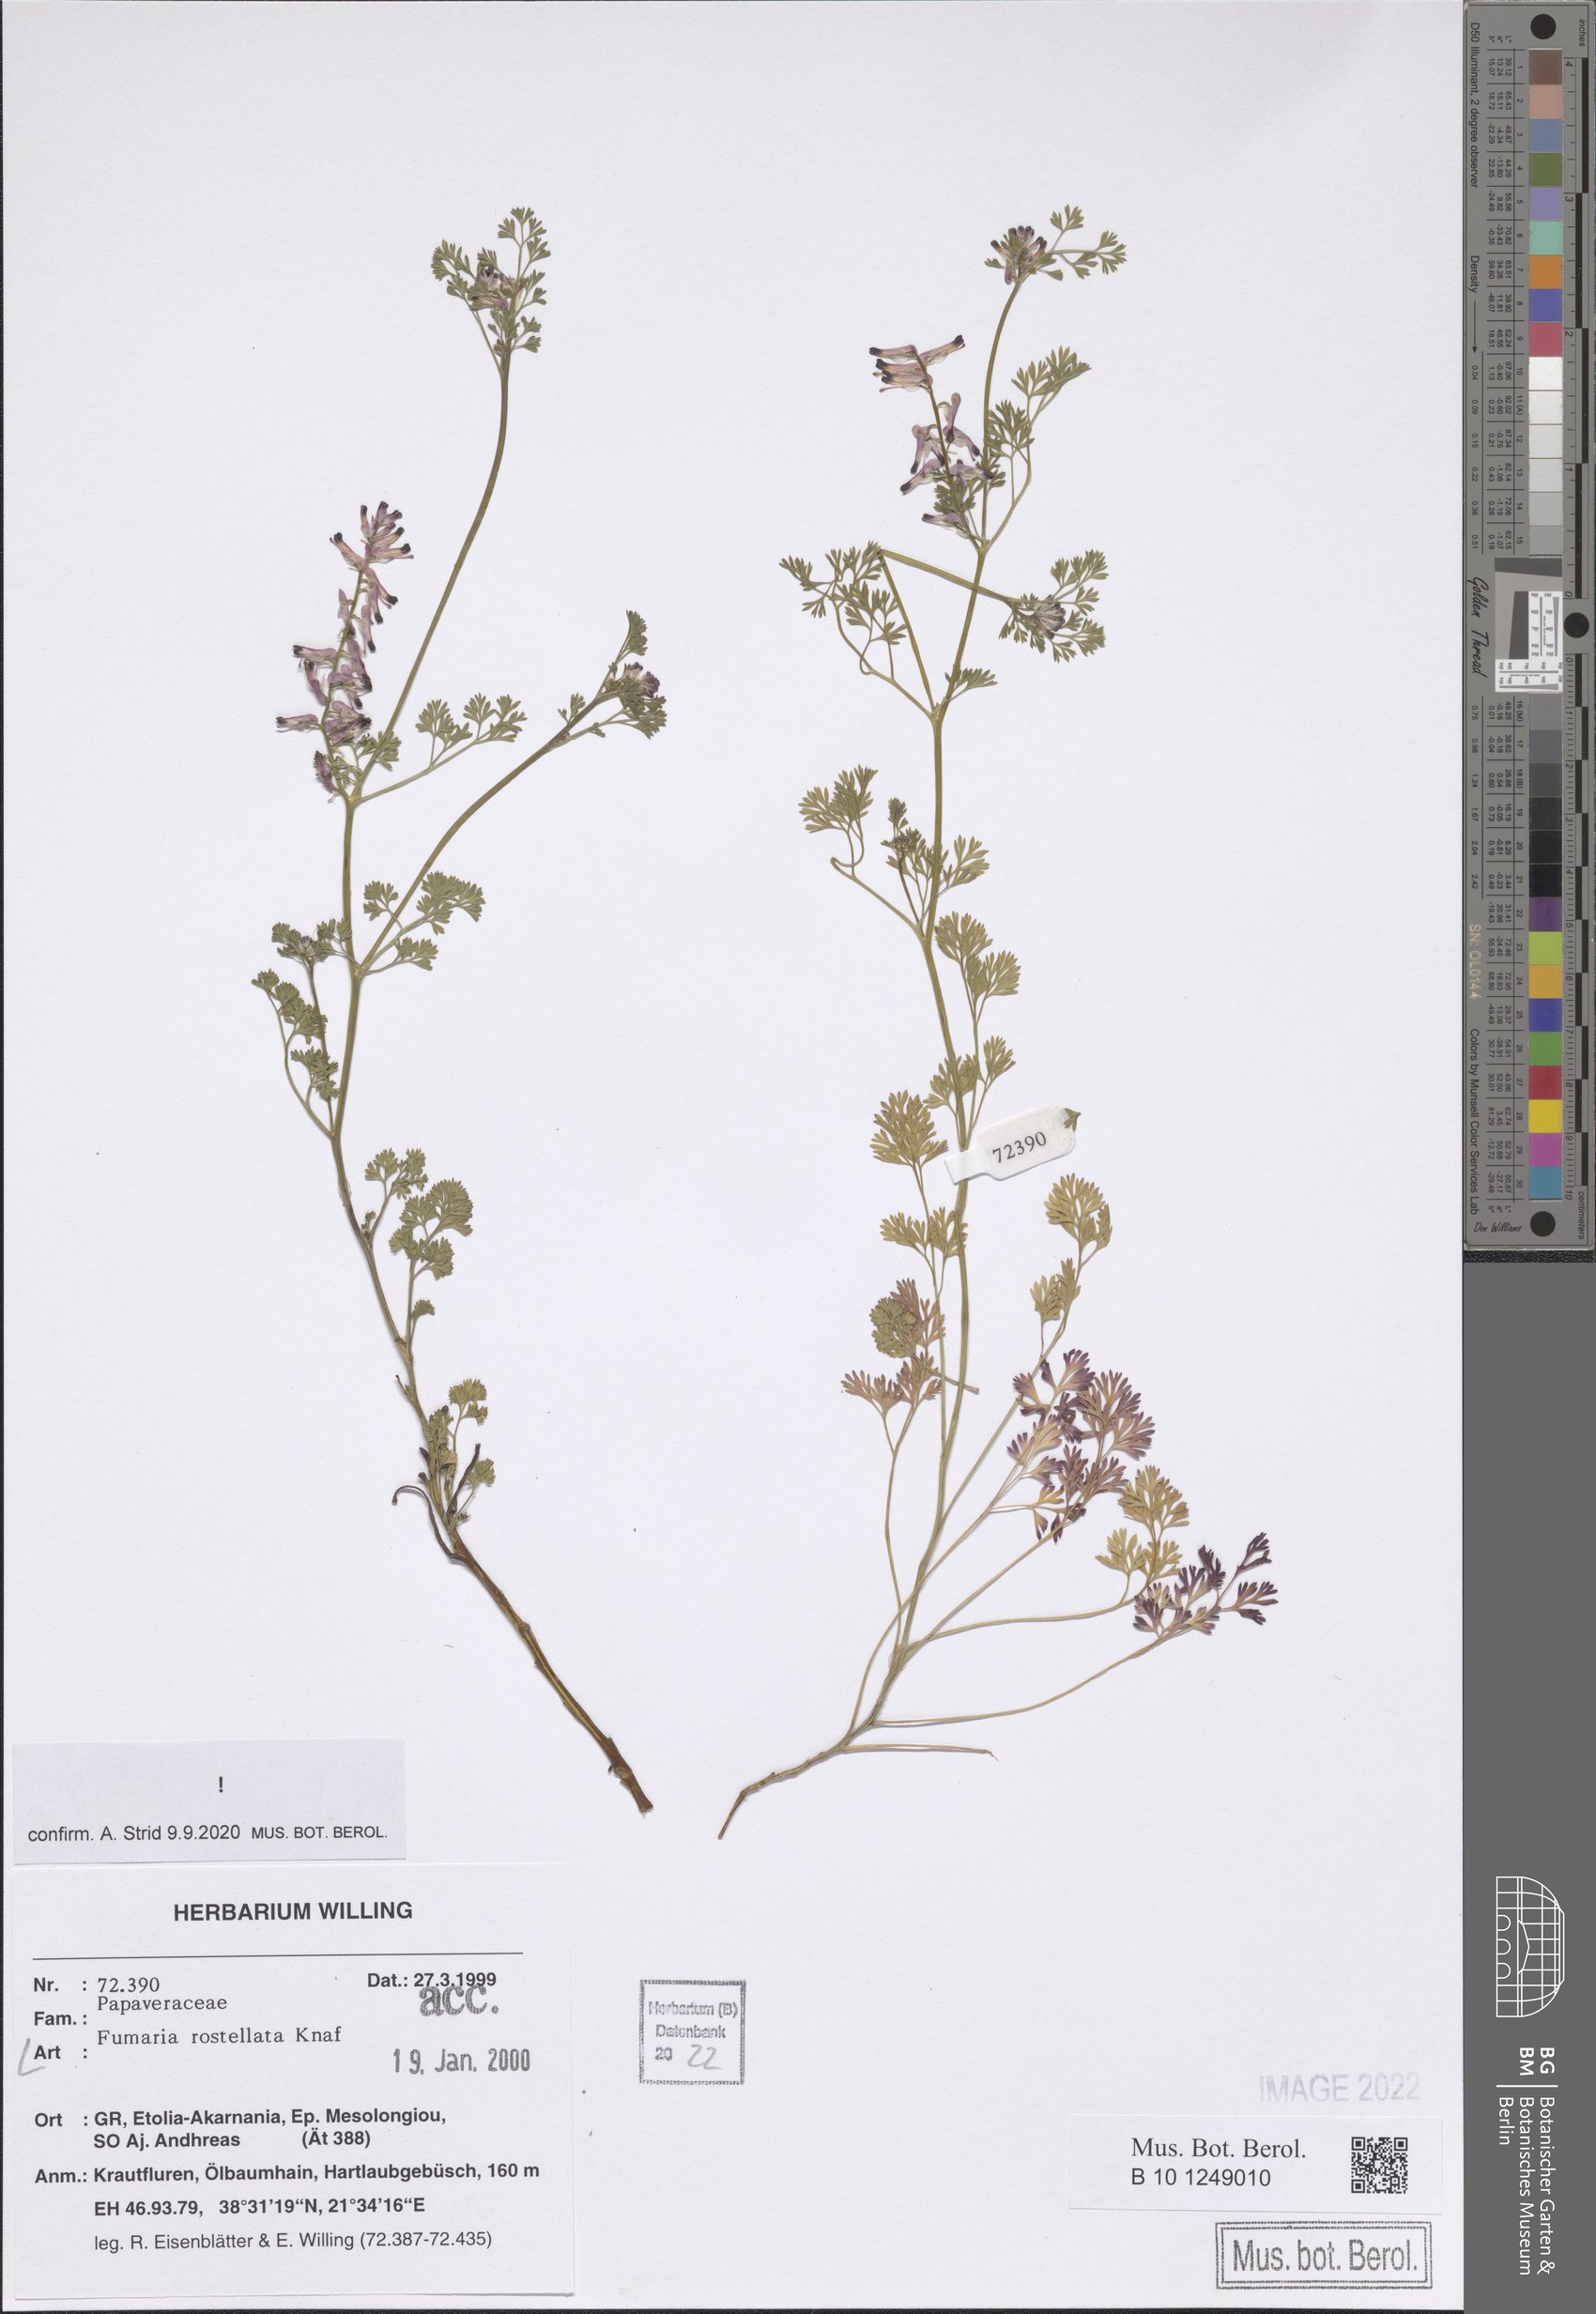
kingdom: Plantae
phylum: Tracheophyta
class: Magnoliopsida
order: Ranunculales
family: Papaveraceae
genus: Fumaria
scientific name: Fumaria rostellata
